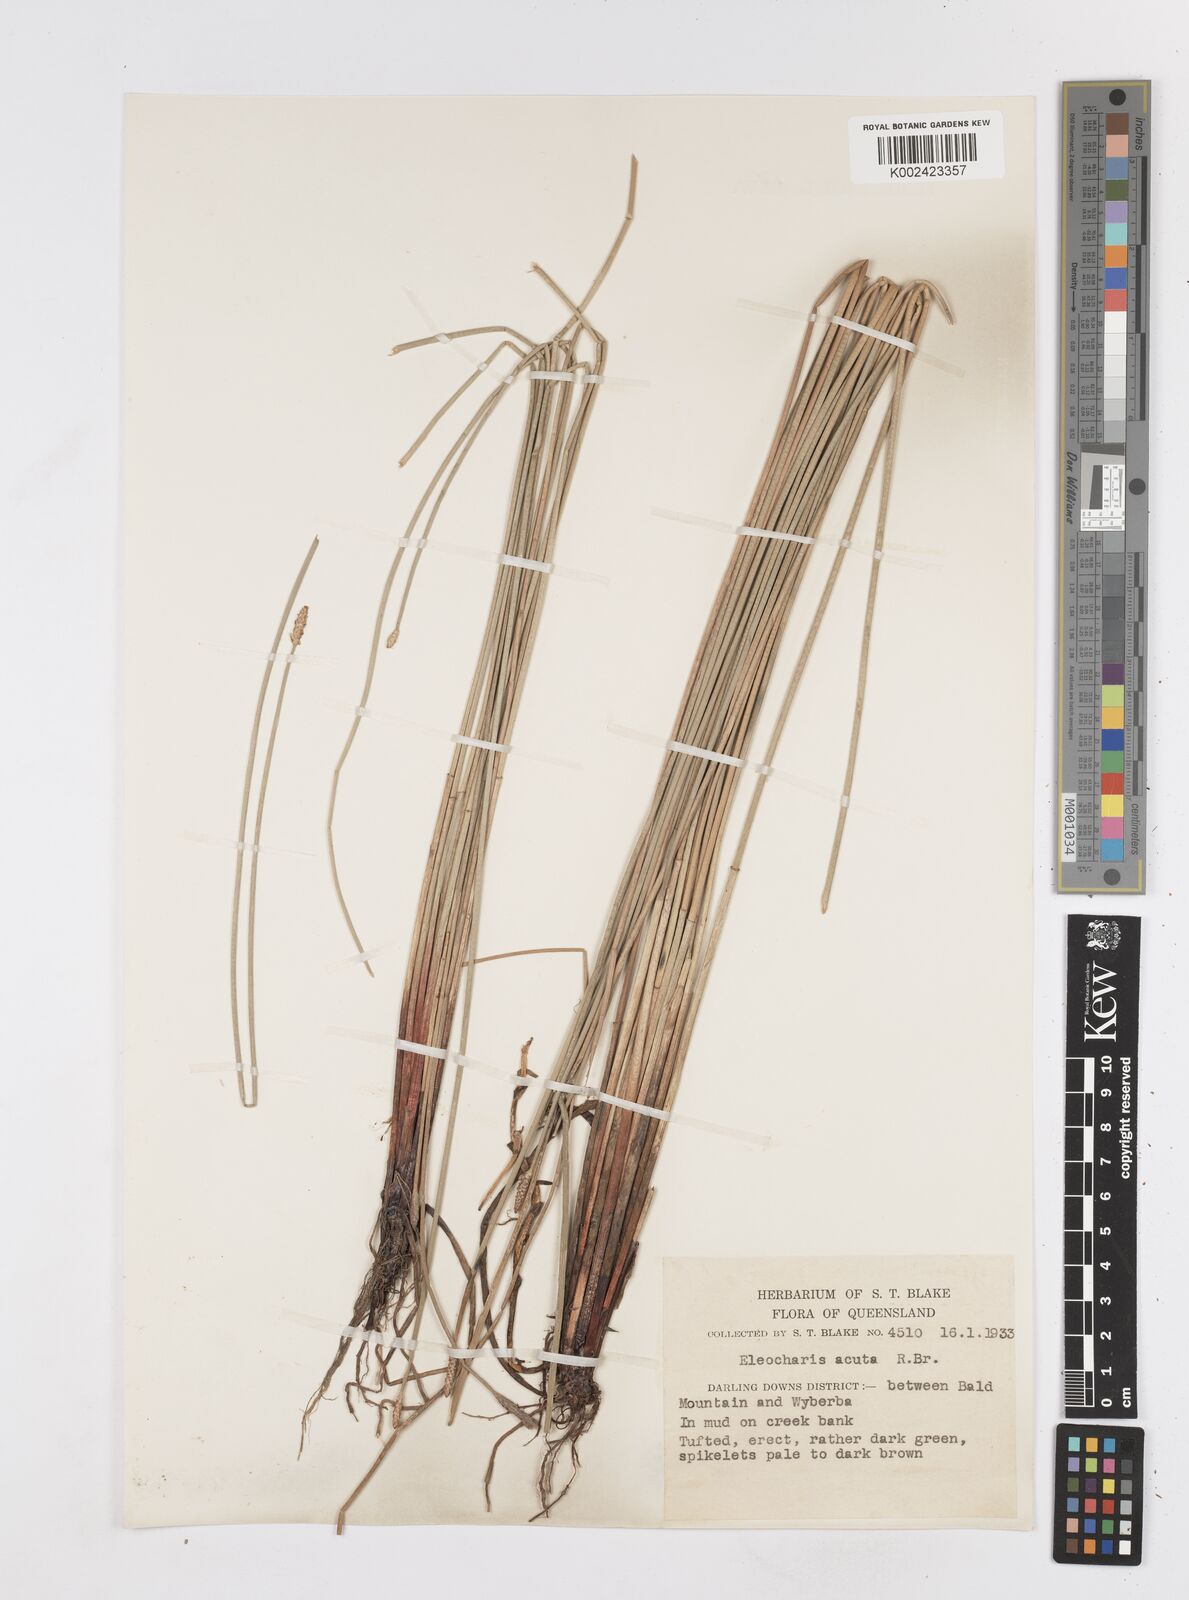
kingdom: Plantae
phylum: Tracheophyta
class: Liliopsida
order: Poales
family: Cyperaceae
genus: Eleocharis
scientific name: Eleocharis acuta
